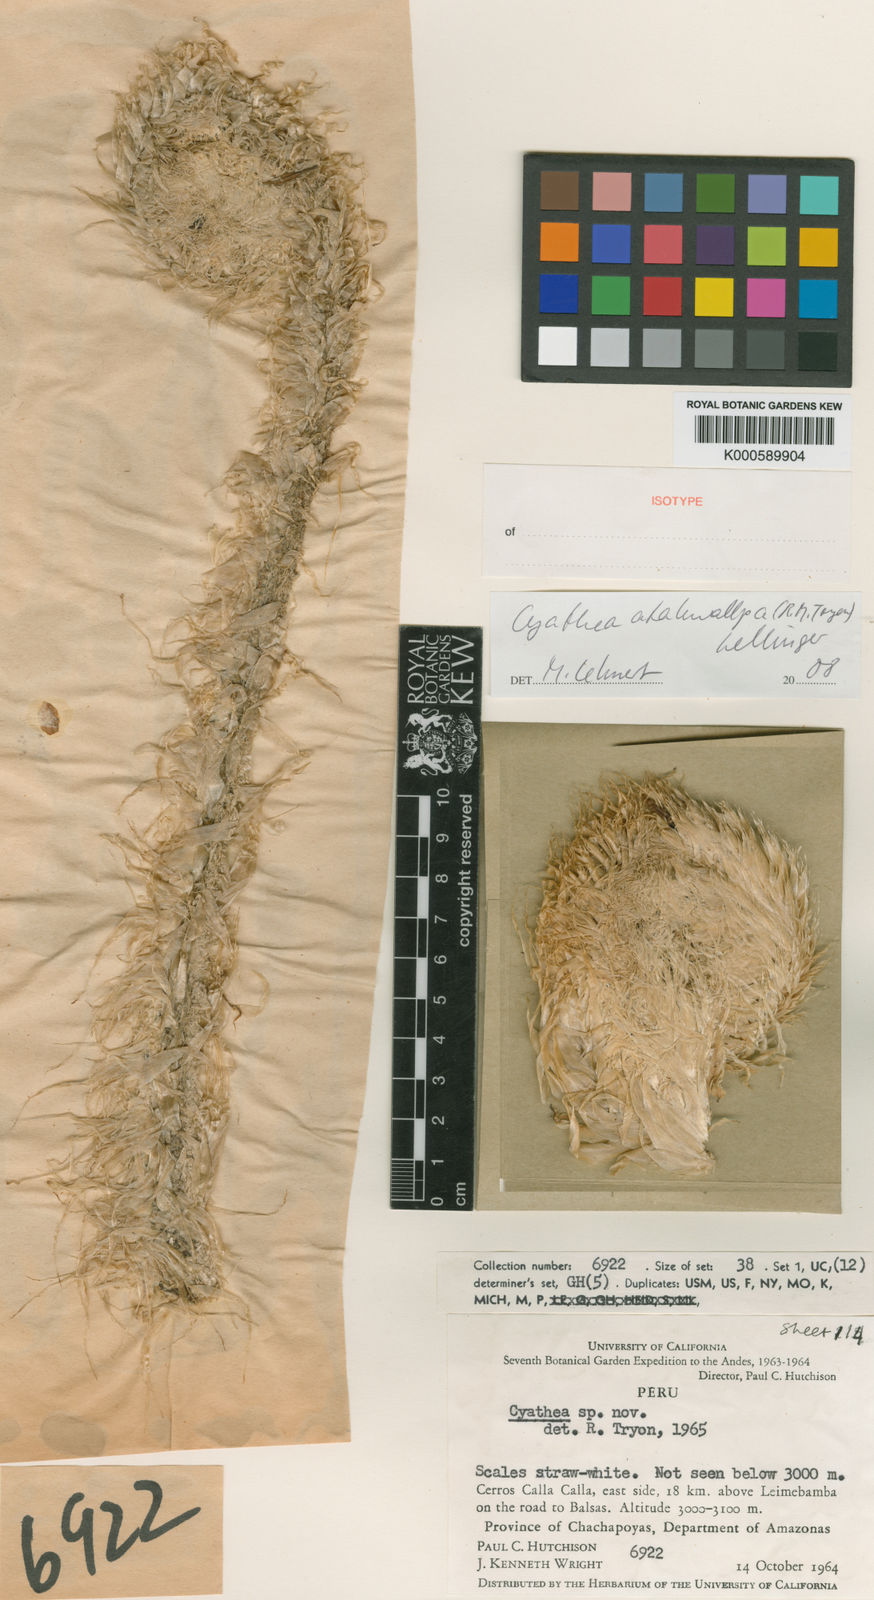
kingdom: Plantae
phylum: Tracheophyta
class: Polypodiopsida
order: Cyatheales
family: Cyatheaceae
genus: Cyathea
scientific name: Cyathea atahuallpa
